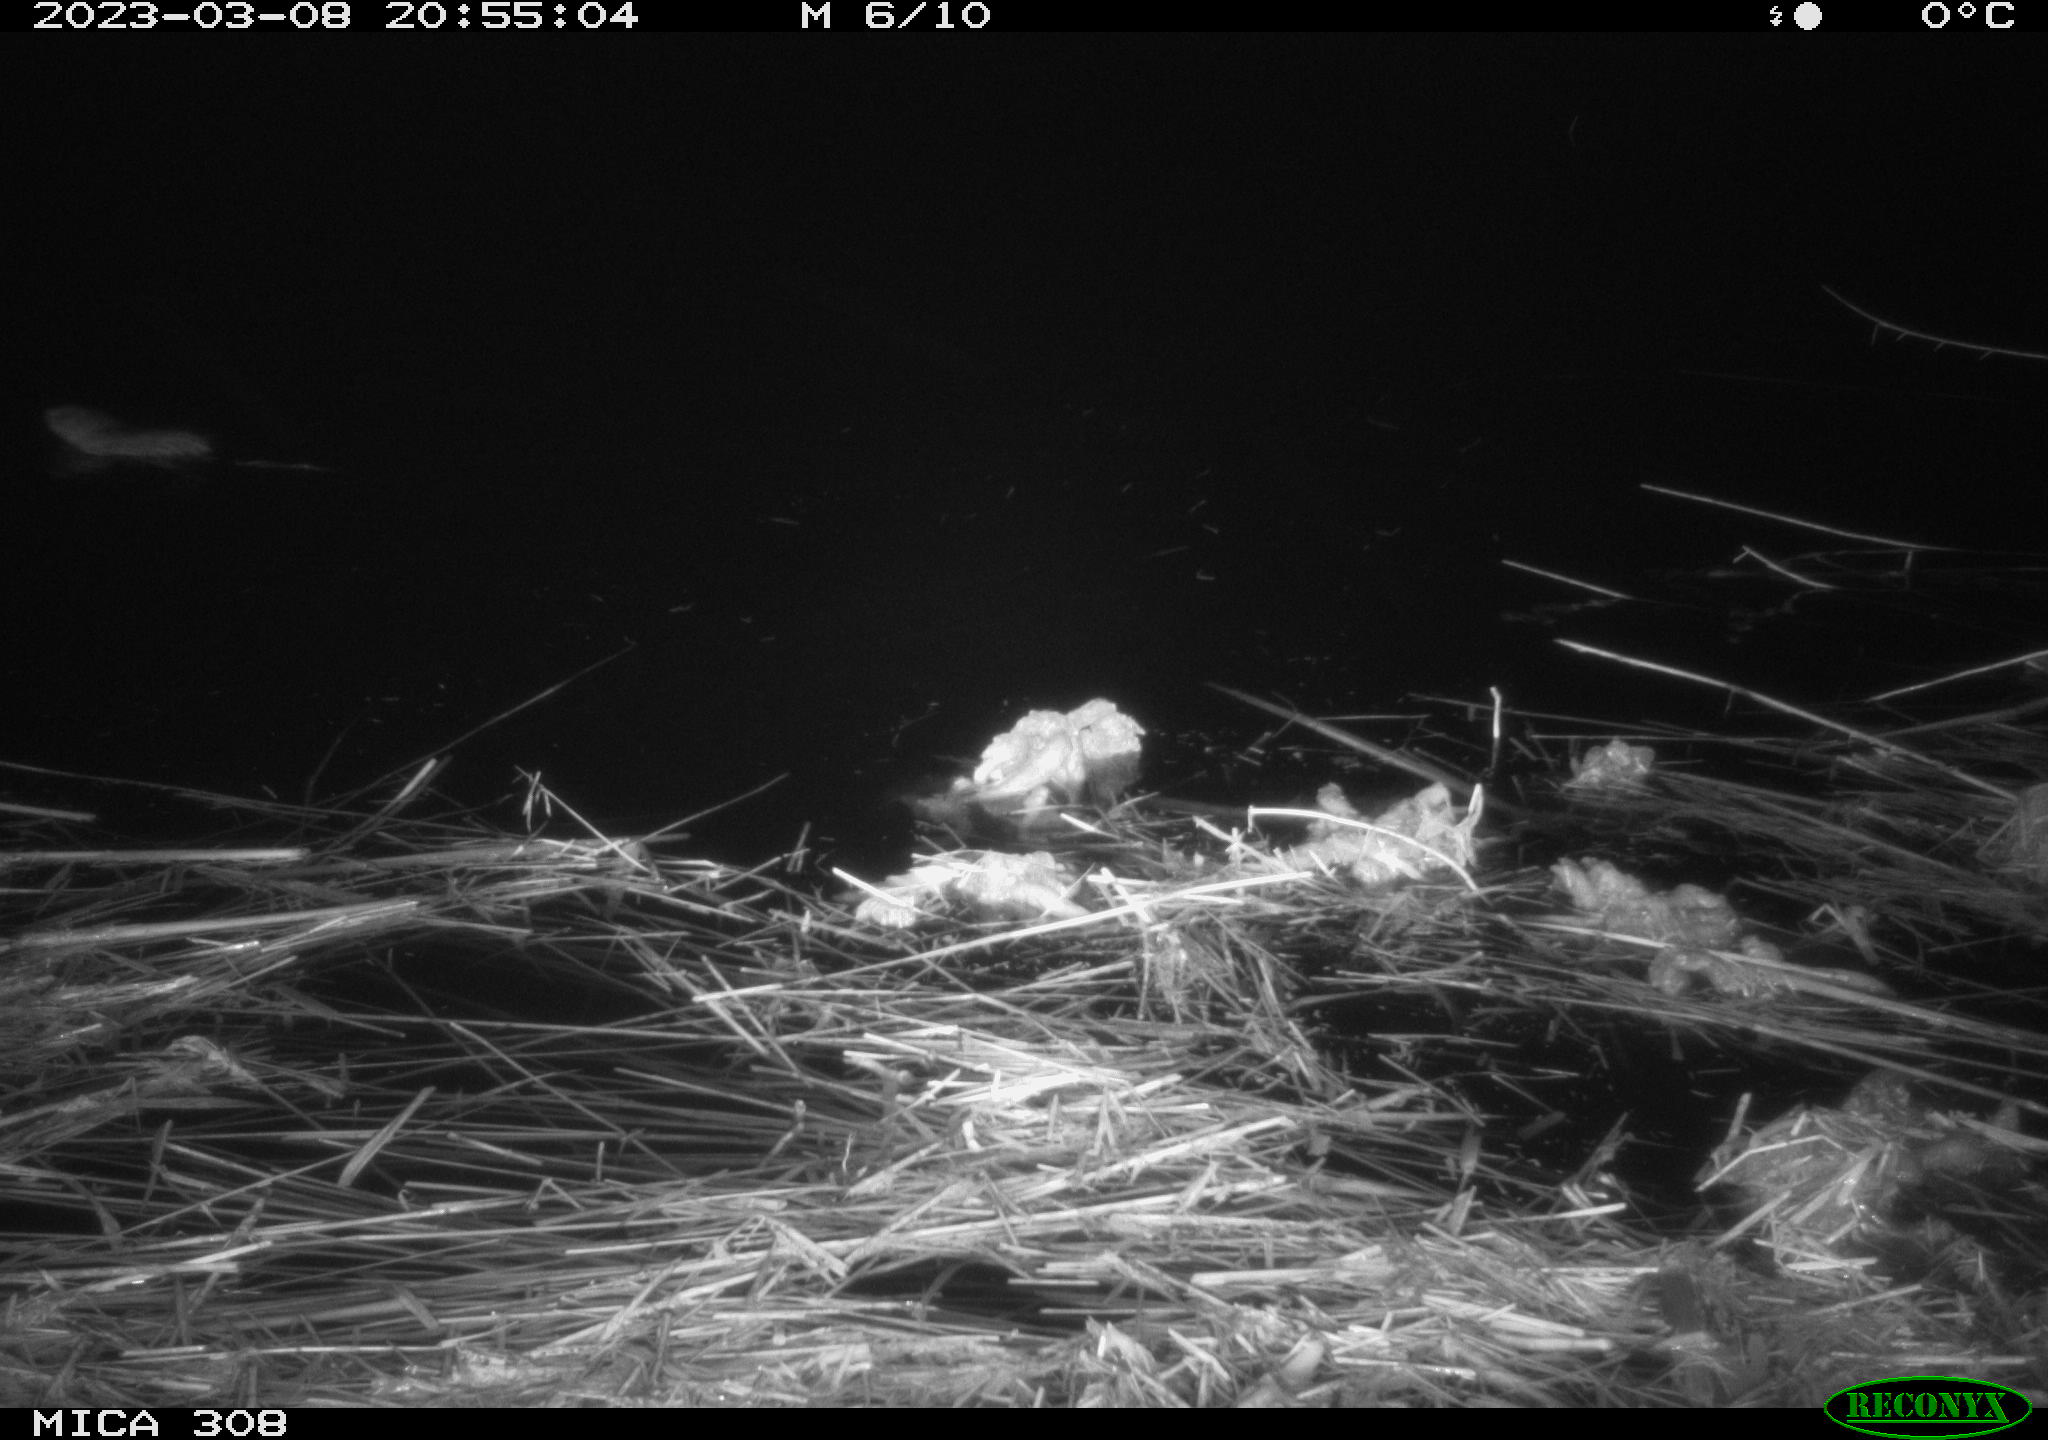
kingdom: Animalia
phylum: Chordata
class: Mammalia
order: Rodentia
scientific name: Rodentia
